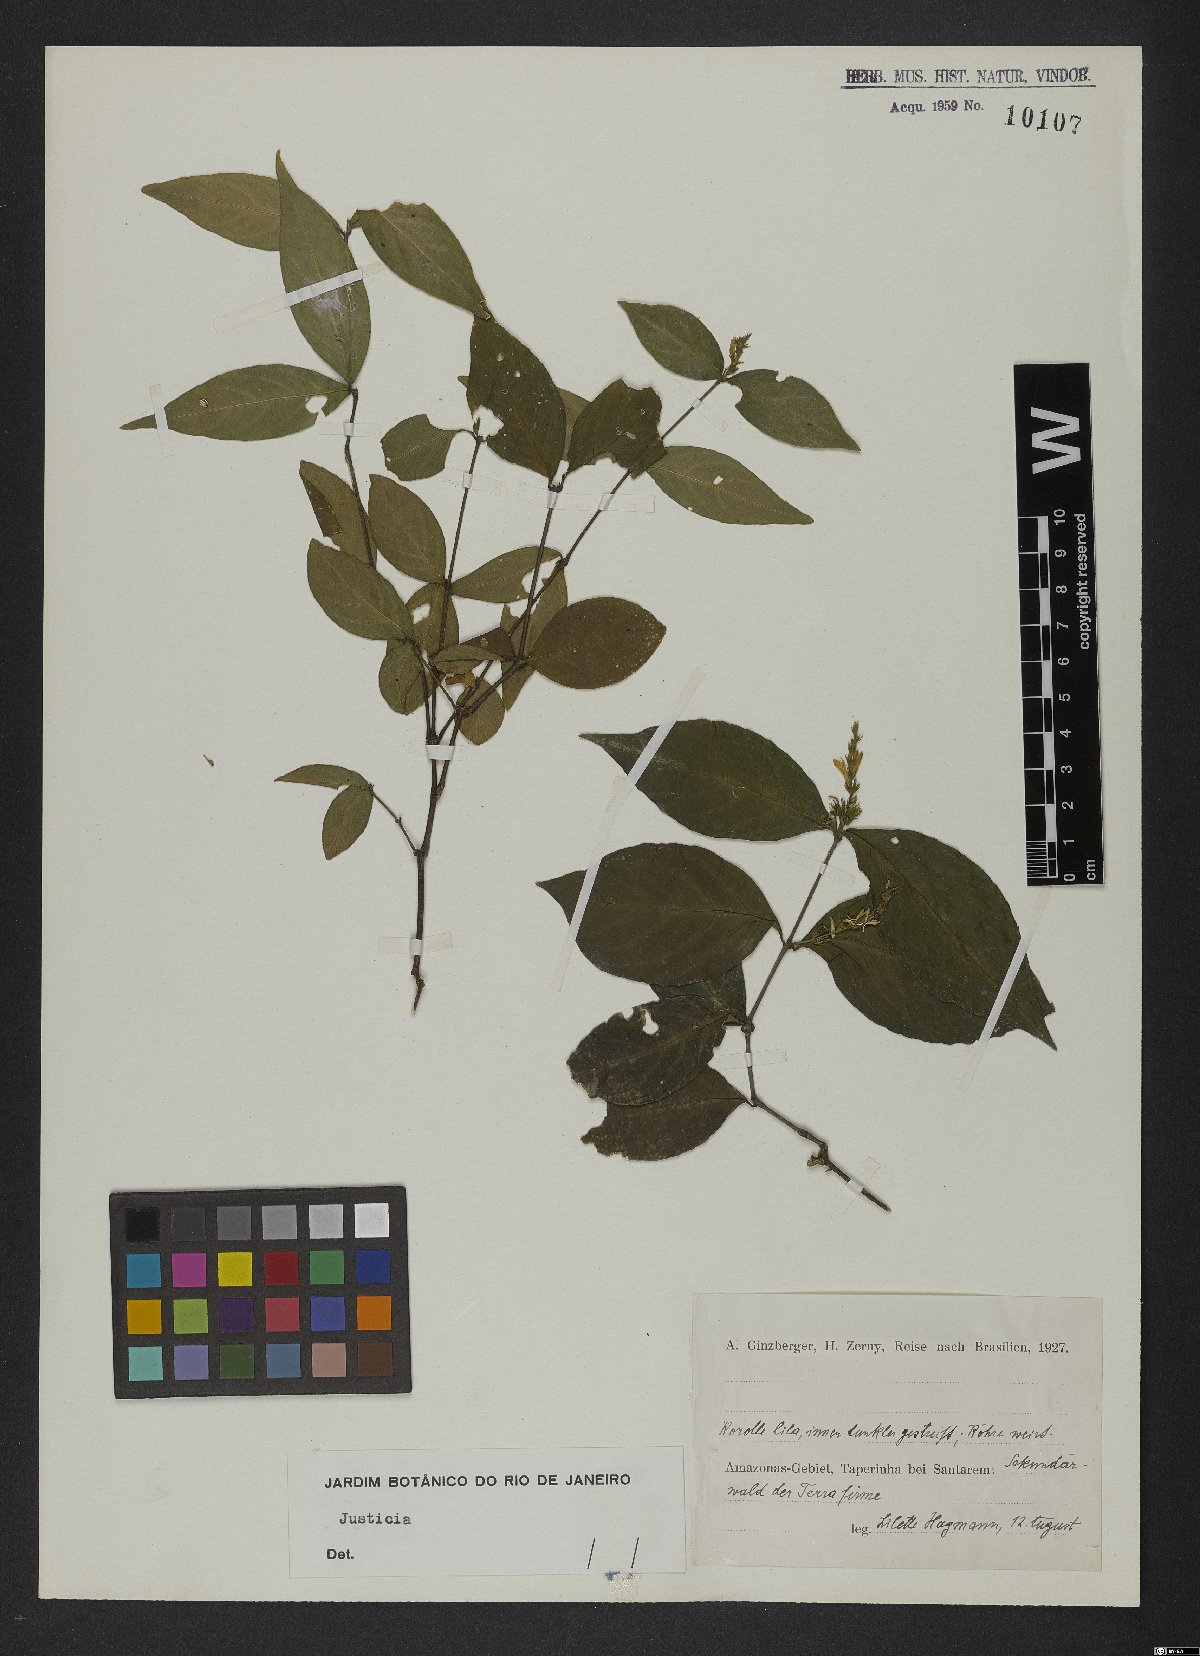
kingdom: Plantae
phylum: Tracheophyta
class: Magnoliopsida
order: Lamiales
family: Acanthaceae
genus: Justicia
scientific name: Justicia
